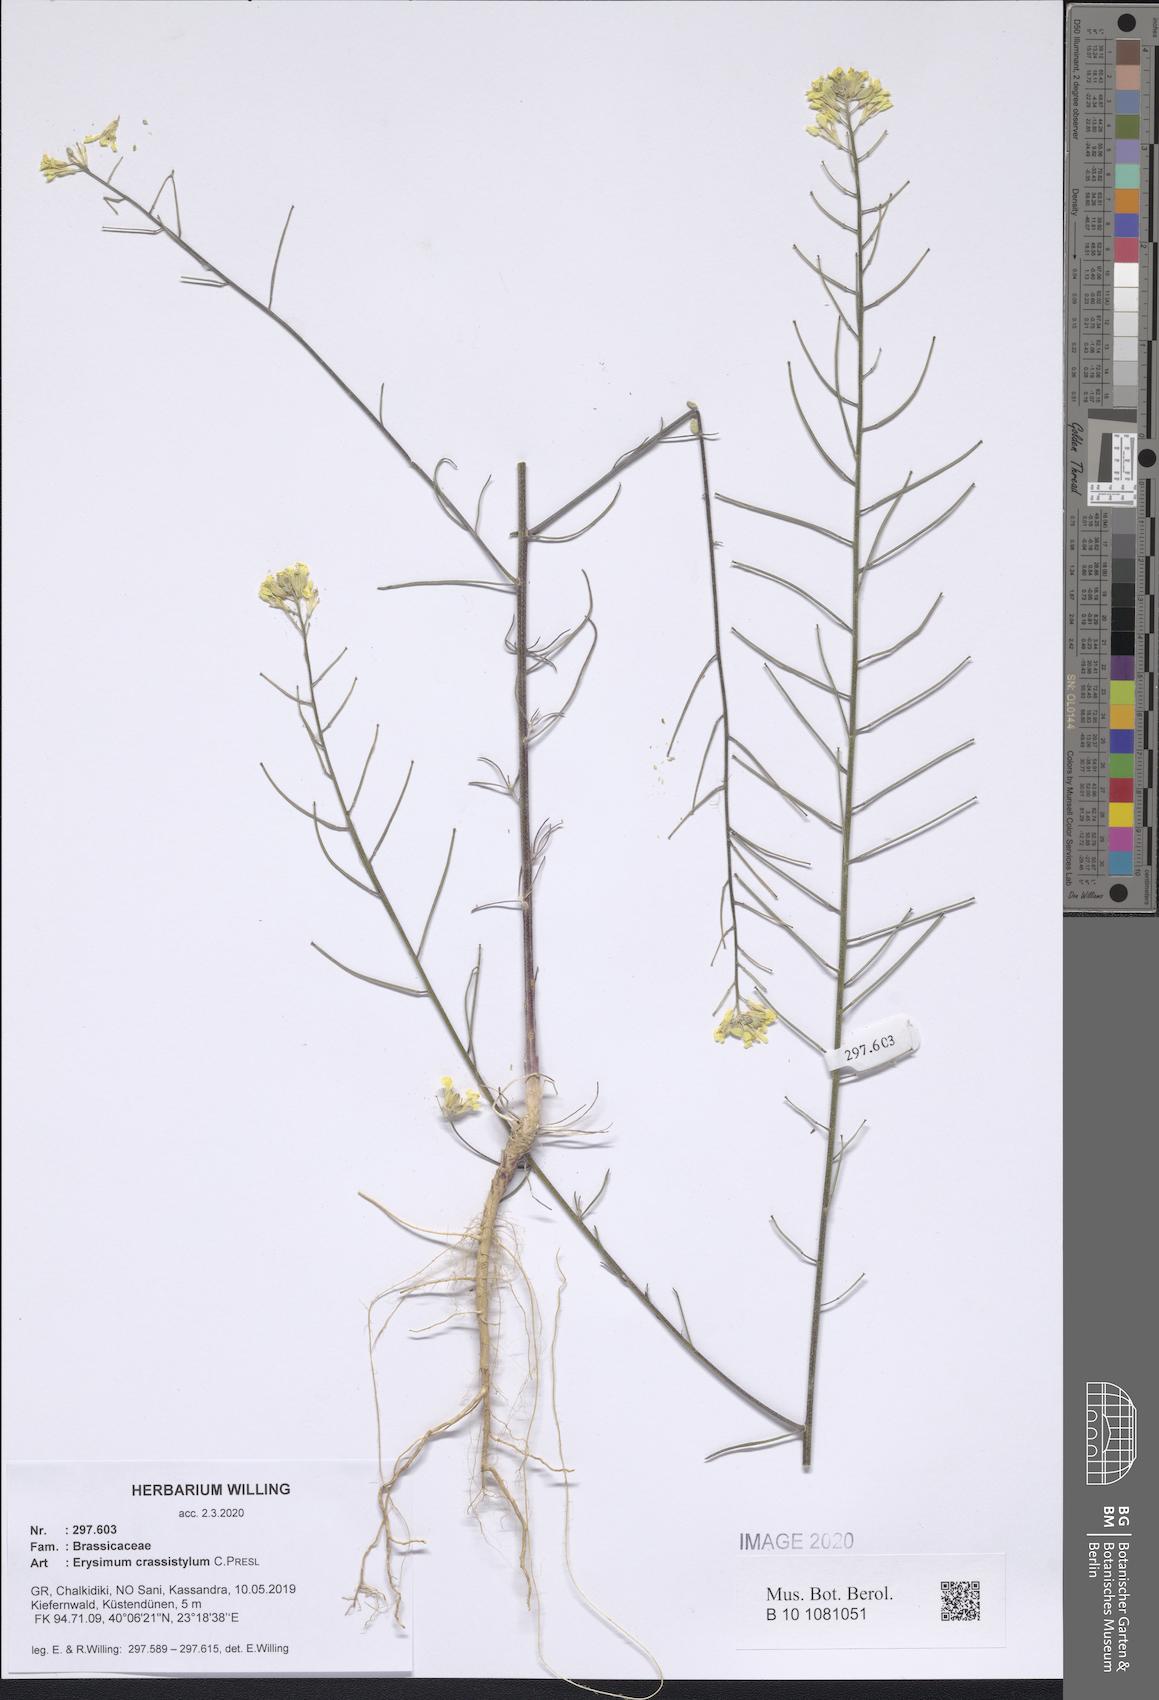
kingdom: Plantae
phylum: Tracheophyta
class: Magnoliopsida
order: Brassicales
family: Brassicaceae
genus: Erysimum
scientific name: Erysimum crassistylum
